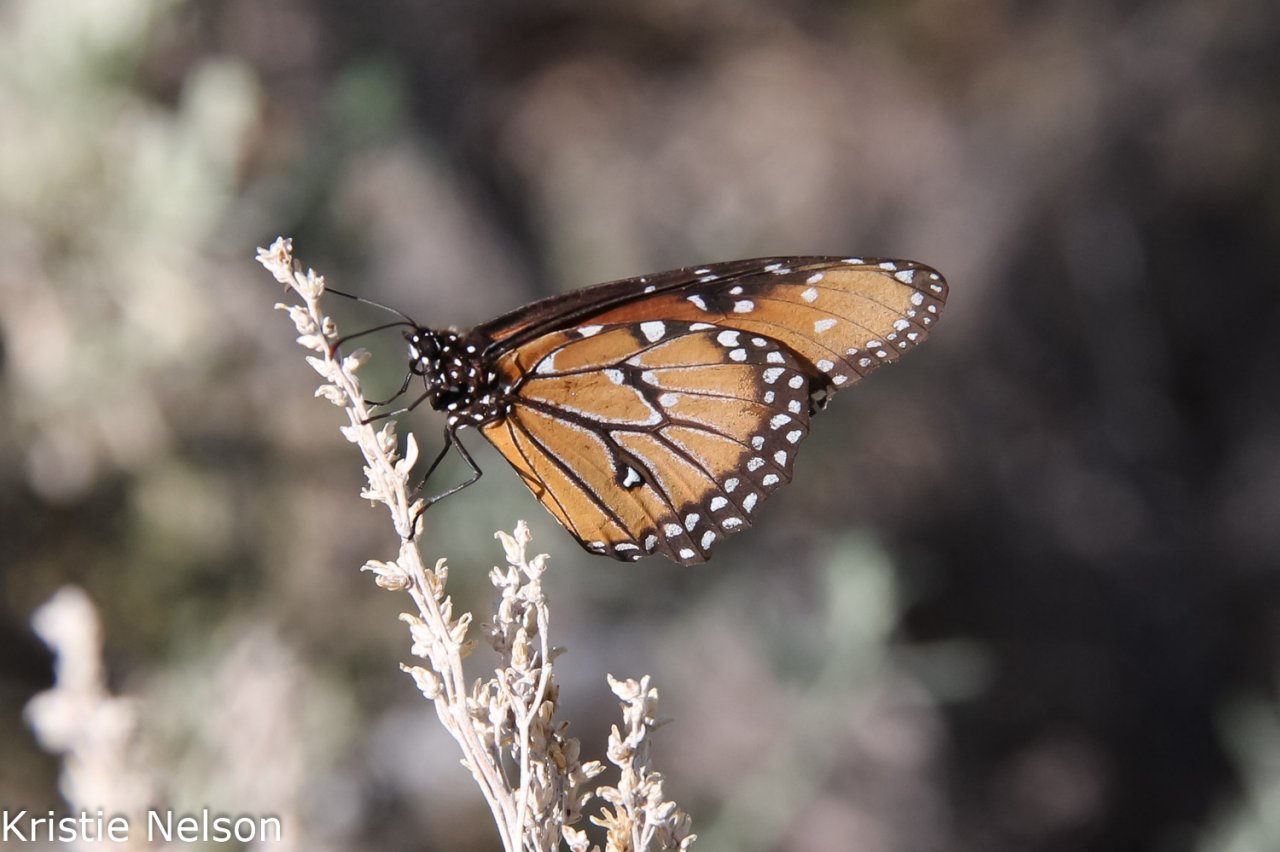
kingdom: Animalia
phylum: Arthropoda
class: Insecta
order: Lepidoptera
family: Nymphalidae
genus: Danaus
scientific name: Danaus gilippus
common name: Queen
